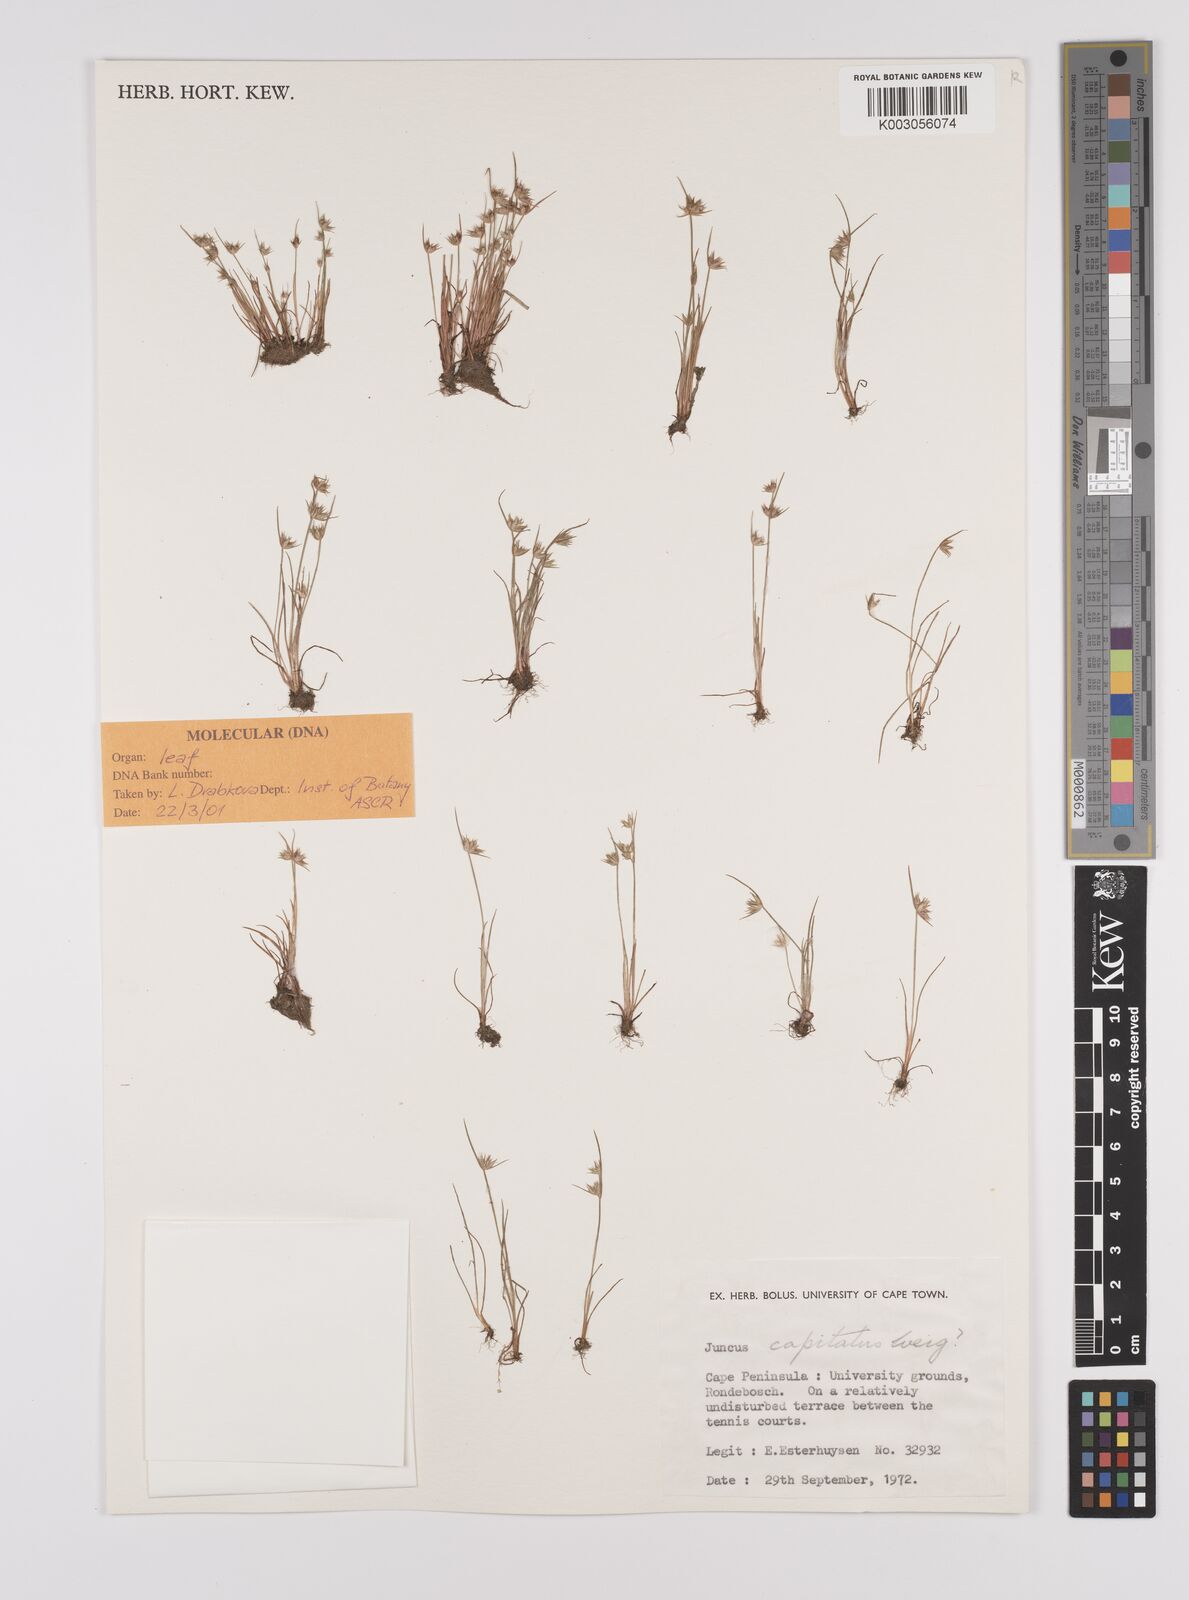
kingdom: Plantae
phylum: Tracheophyta
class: Liliopsida
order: Poales
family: Juncaceae
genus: Juncus
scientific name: Juncus capitatus
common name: Dwarf rush
